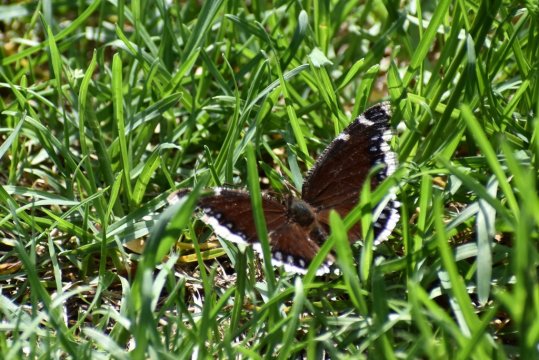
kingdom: Animalia
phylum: Arthropoda
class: Insecta
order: Lepidoptera
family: Nymphalidae
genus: Nymphalis
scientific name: Nymphalis antiopa
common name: Mourning Cloak
